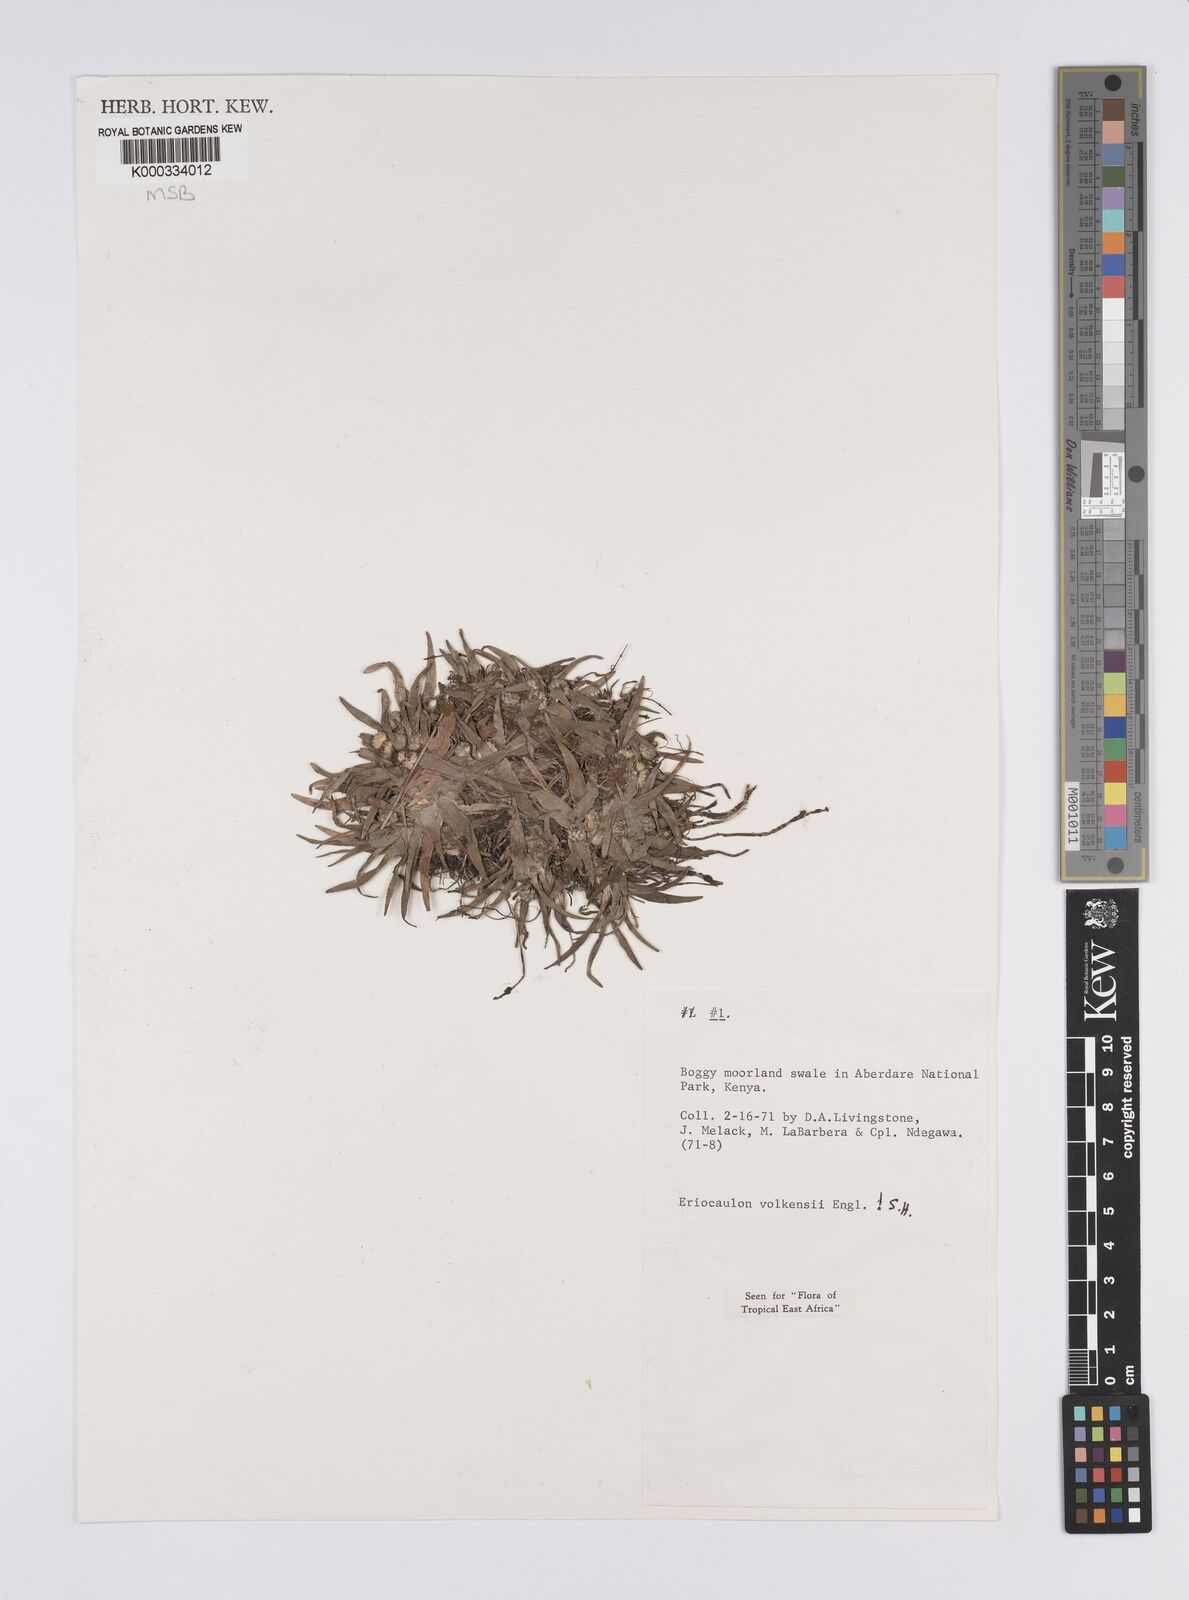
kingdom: Plantae
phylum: Tracheophyta
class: Liliopsida
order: Poales
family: Eriocaulaceae
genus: Eriocaulon
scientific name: Eriocaulon volkensii
